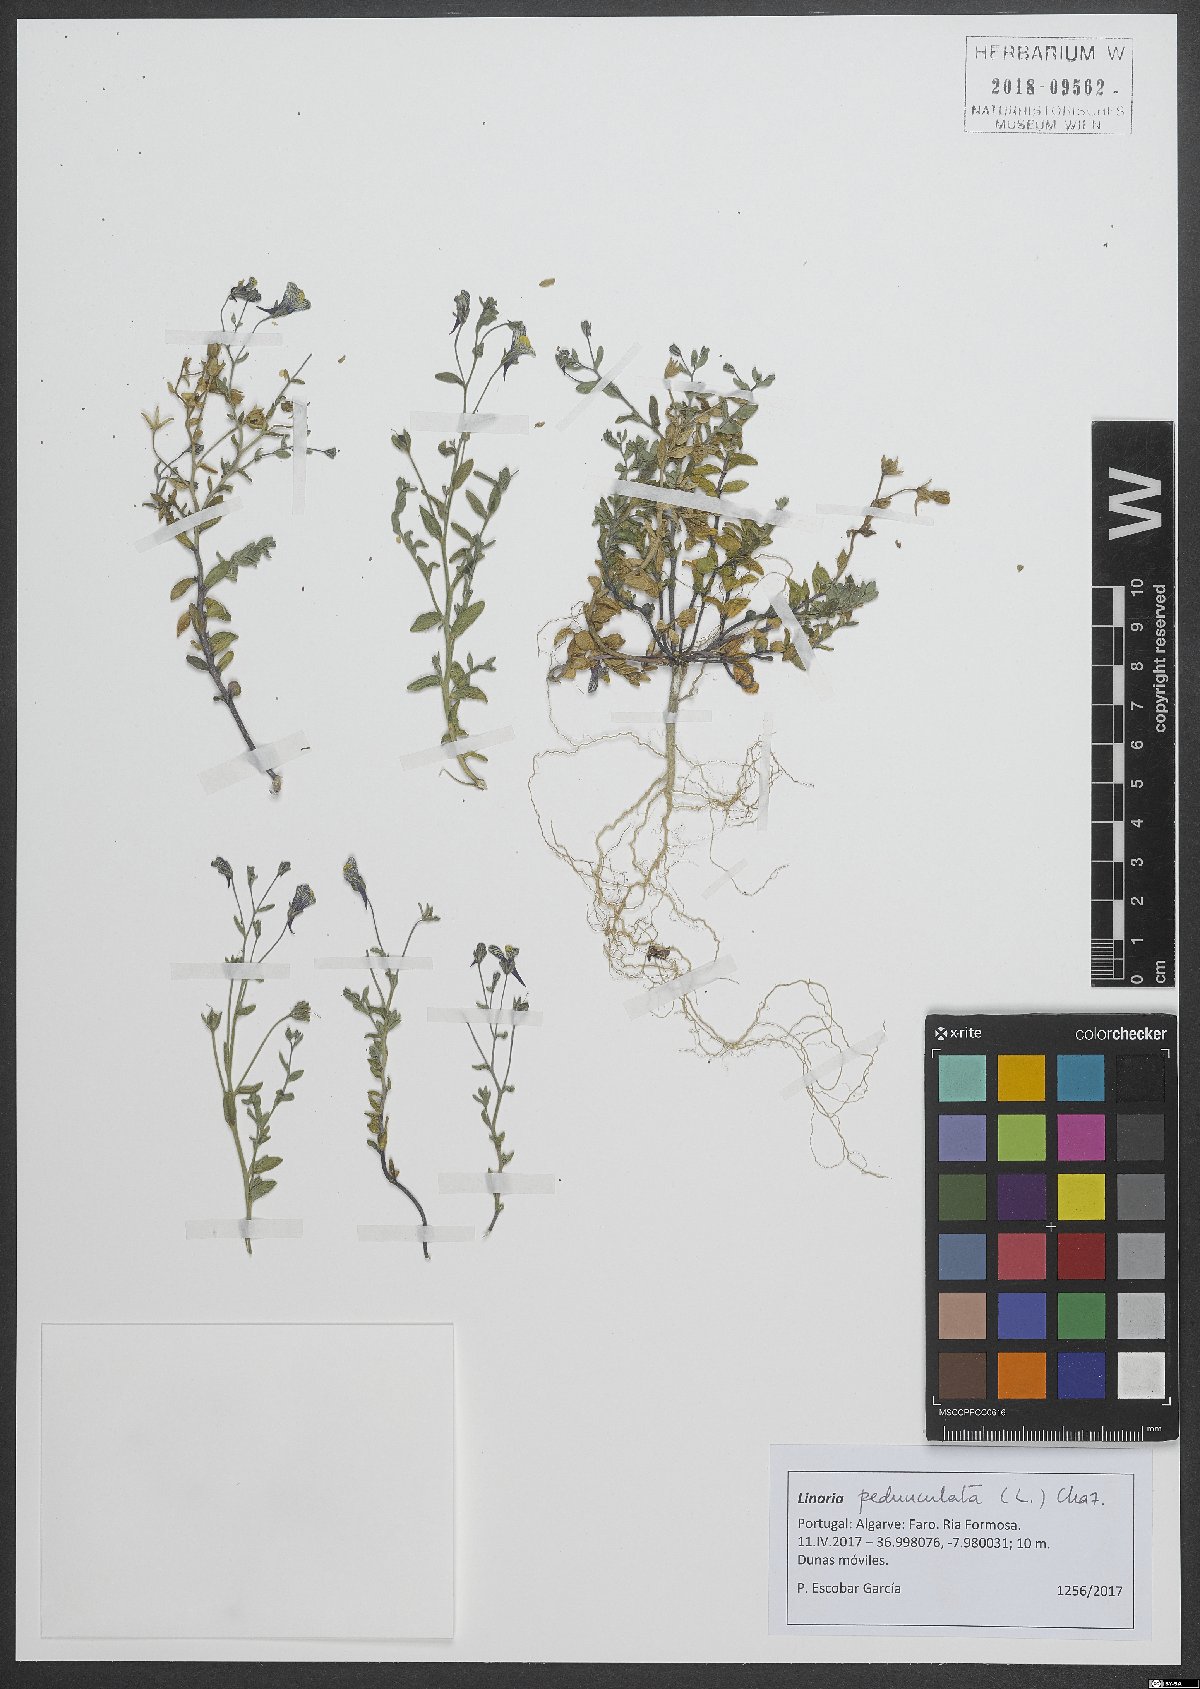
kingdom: Plantae
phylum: Tracheophyta
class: Magnoliopsida
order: Lamiales
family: Plantaginaceae
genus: Linaria
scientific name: Linaria pedunculata
